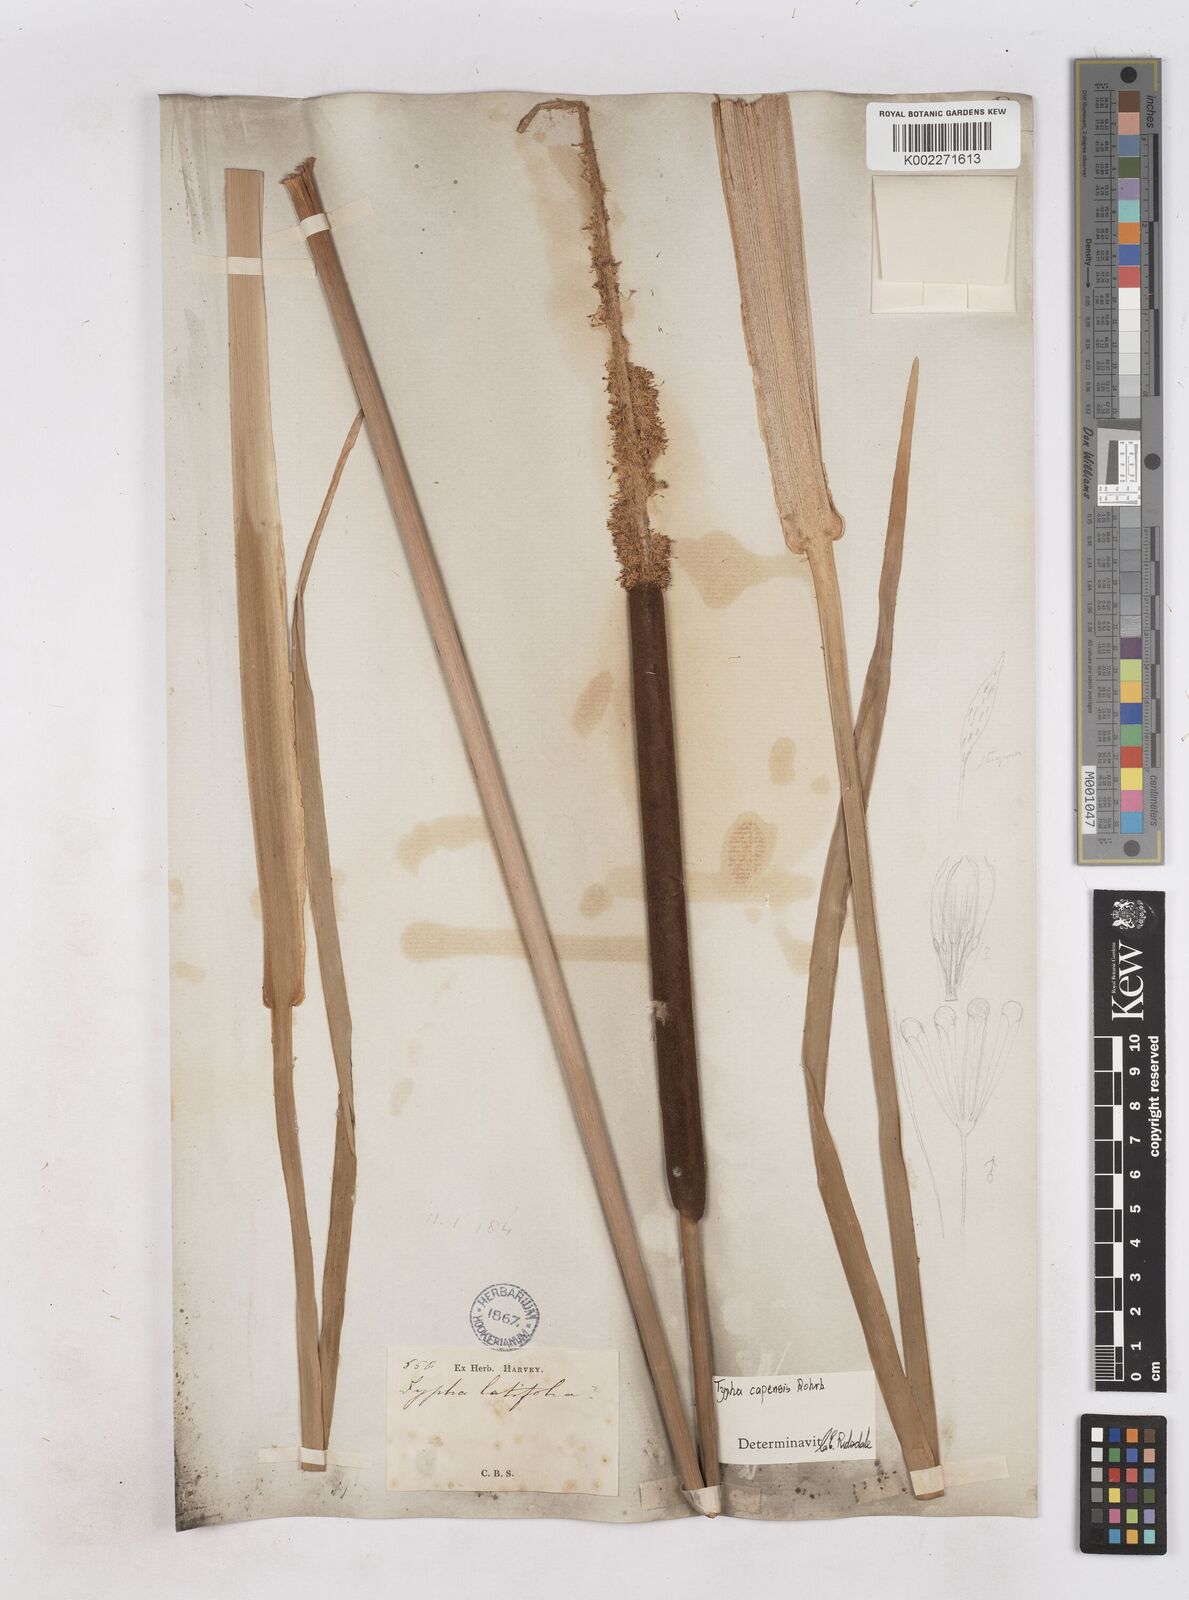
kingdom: Plantae
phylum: Tracheophyta
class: Liliopsida
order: Poales
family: Typhaceae
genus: Typha
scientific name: Typha capensis
